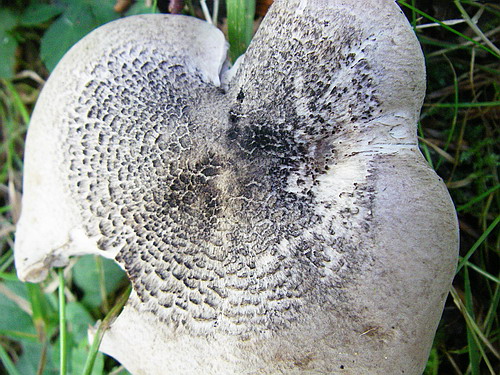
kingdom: Fungi
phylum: Basidiomycota
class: Agaricomycetes
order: Agaricales
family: Tricholomataceae
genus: Tricholoma
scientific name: Tricholoma basirubens
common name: rødfodet ridderhat
